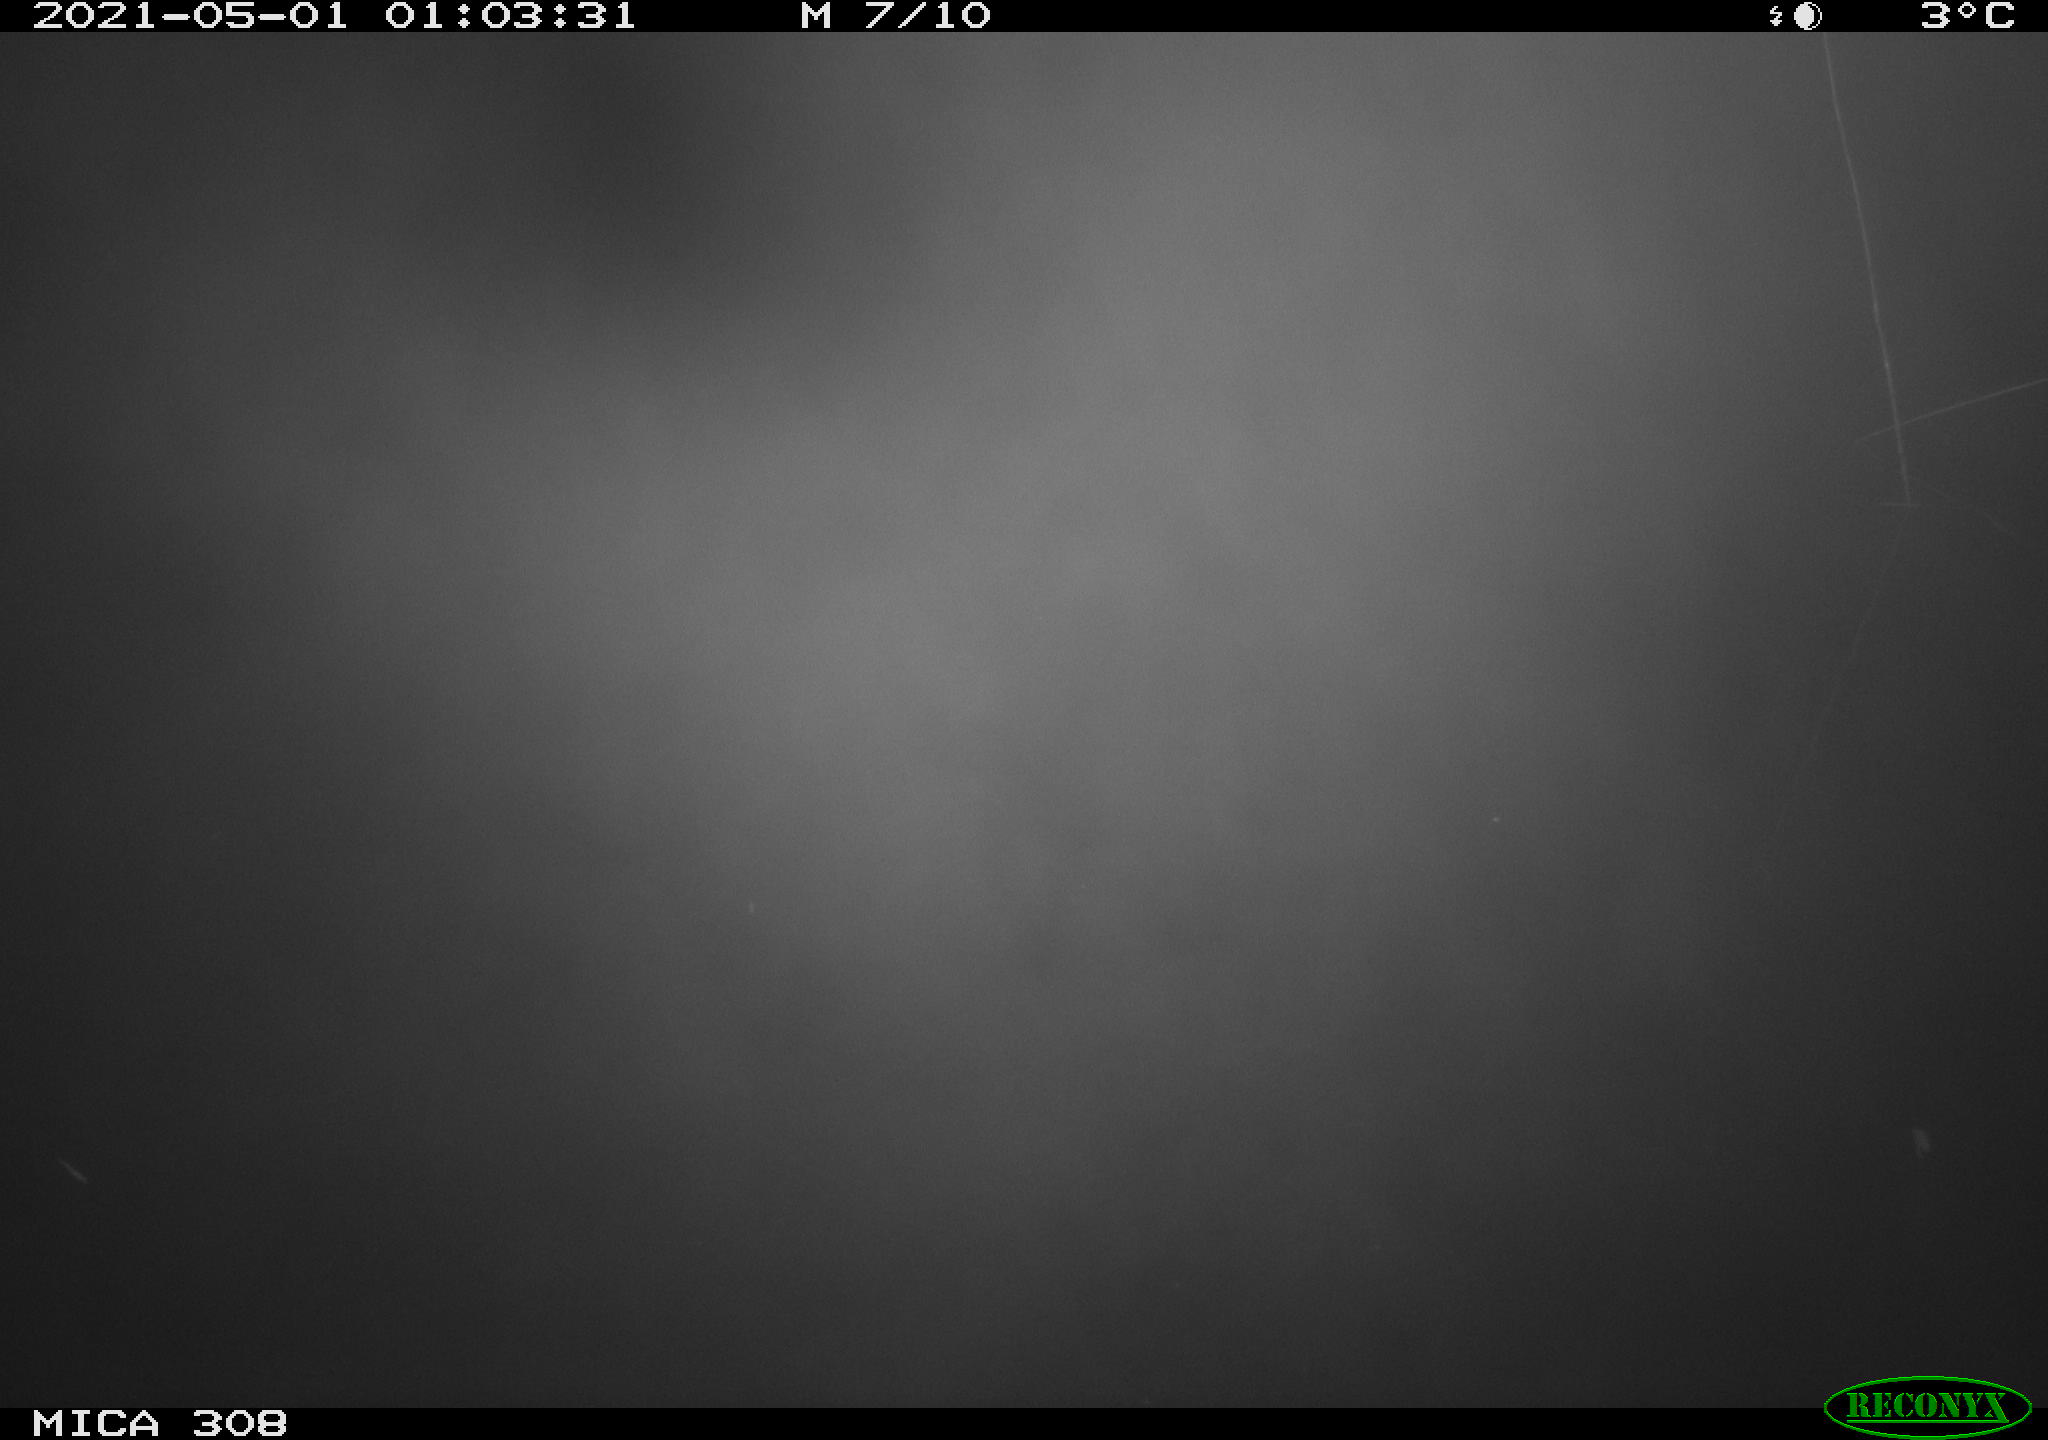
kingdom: Animalia
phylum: Chordata
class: Aves
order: Anseriformes
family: Anatidae
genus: Anas
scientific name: Anas platyrhynchos
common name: Mallard
